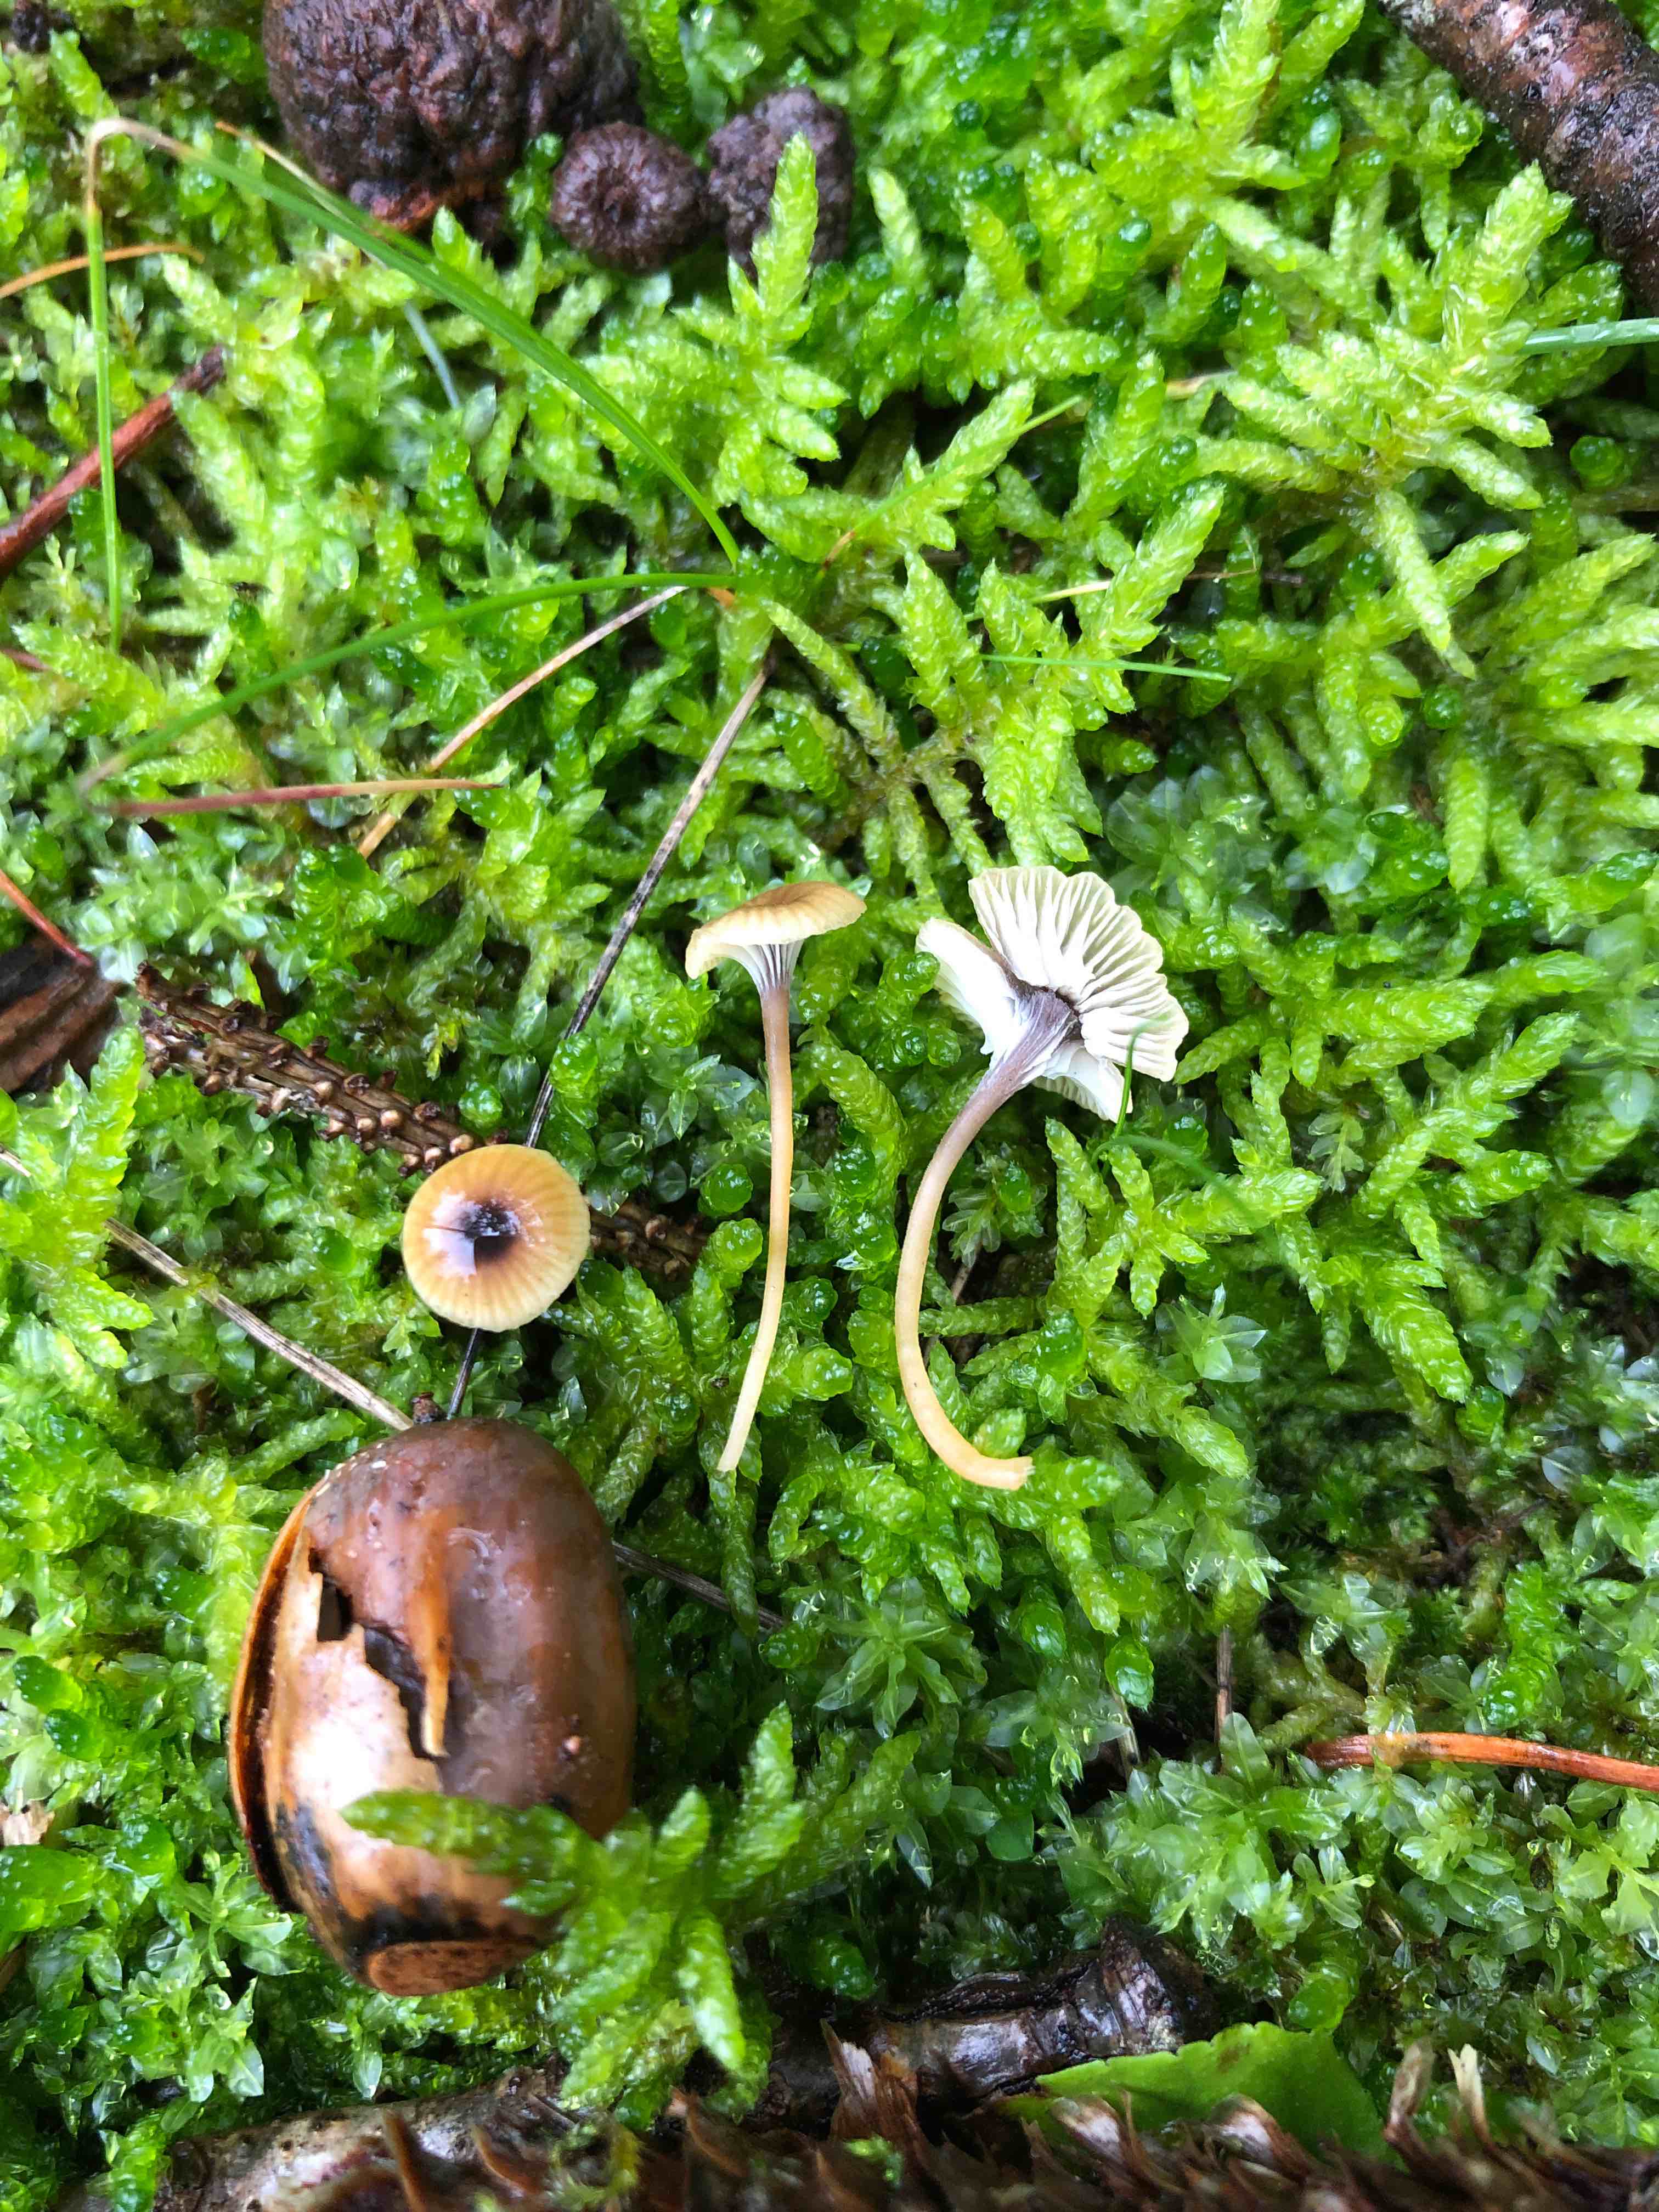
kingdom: Fungi
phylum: Basidiomycota
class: Agaricomycetes
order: Hymenochaetales
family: Rickenellaceae
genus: Rickenella
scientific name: Rickenella swartzii
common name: finstokket mosnavlehat
